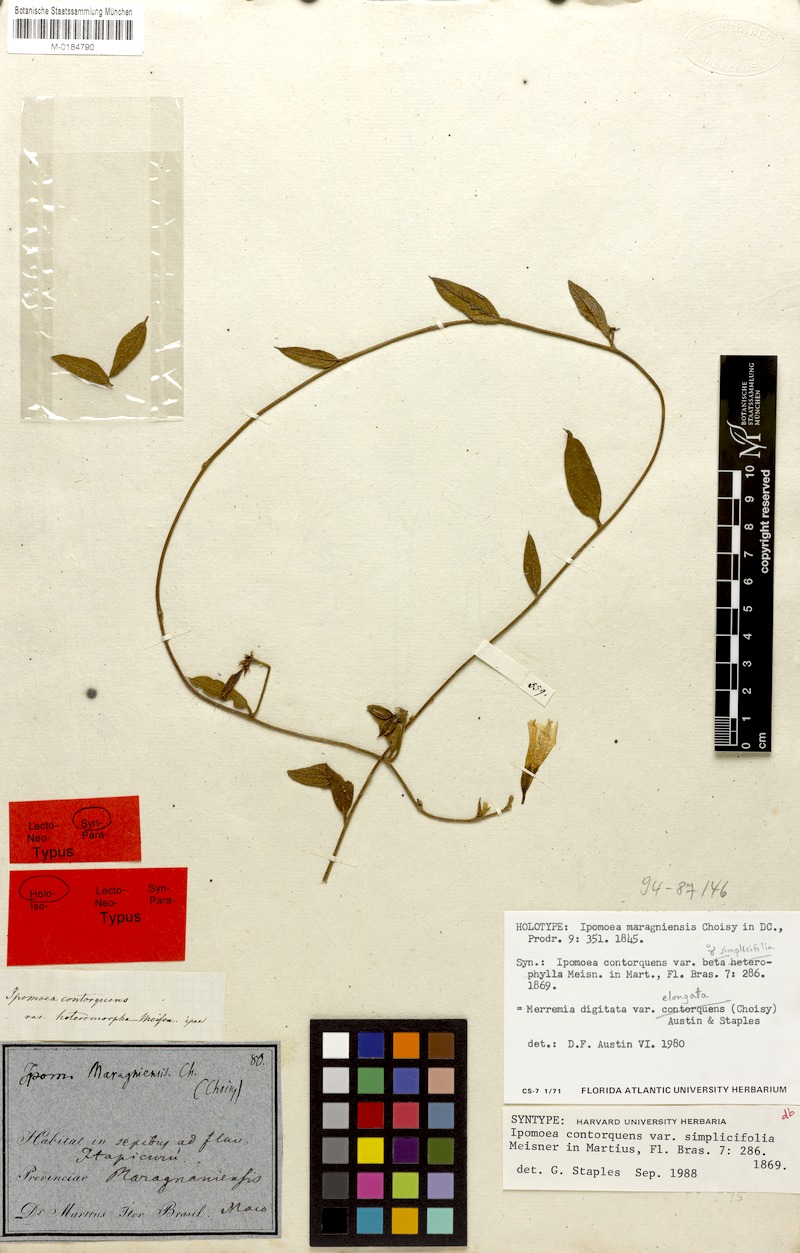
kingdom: Plantae
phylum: Tracheophyta
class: Magnoliopsida
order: Solanales
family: Convolvulaceae
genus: Distimake
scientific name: Distimake
